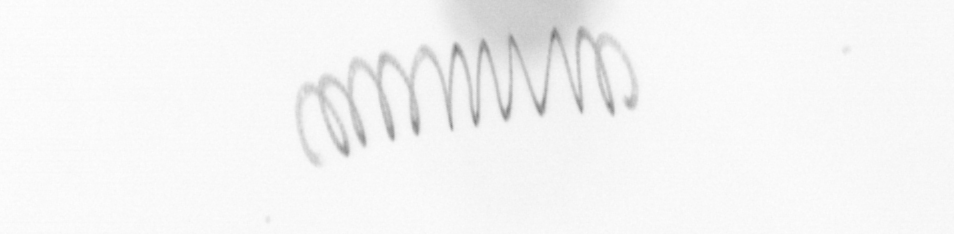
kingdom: Chromista
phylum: Ochrophyta
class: Bacillariophyceae
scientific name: Bacillariophyceae
